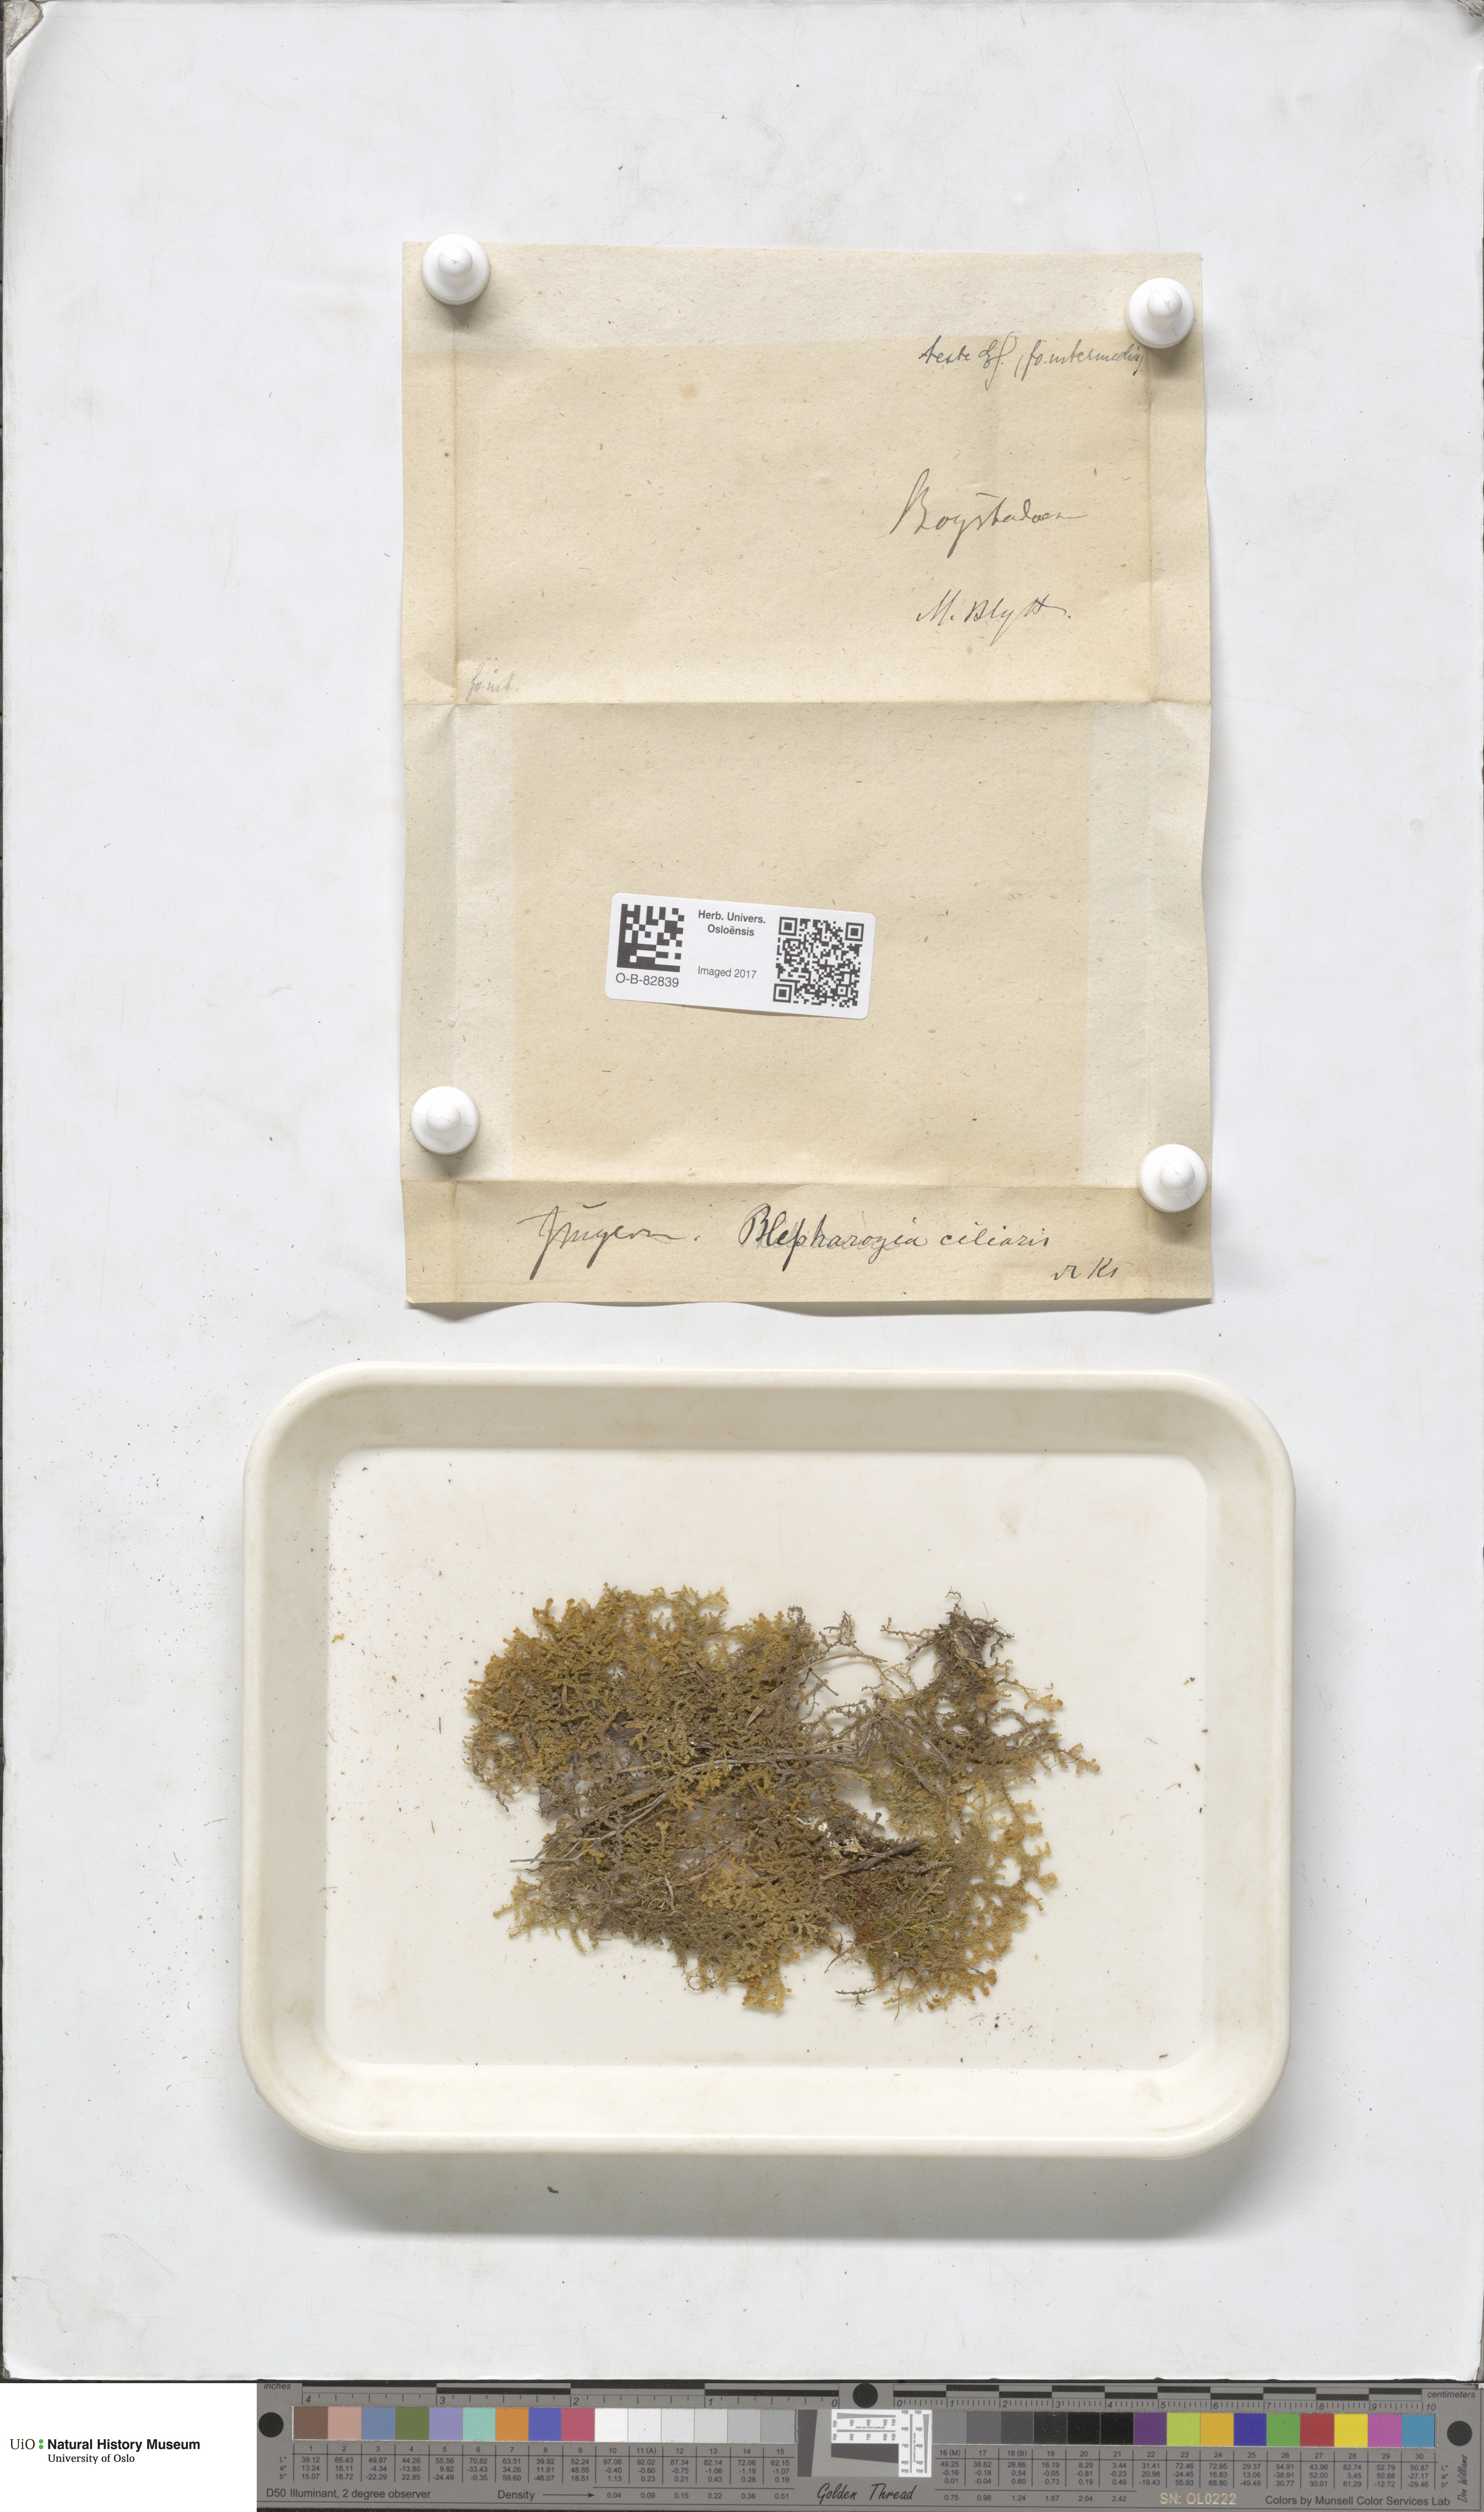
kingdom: Plantae
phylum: Marchantiophyta
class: Jungermanniopsida
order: Ptilidiales
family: Ptilidiaceae
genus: Ptilidium
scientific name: Ptilidium ciliare
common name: Ciliate fringewort
